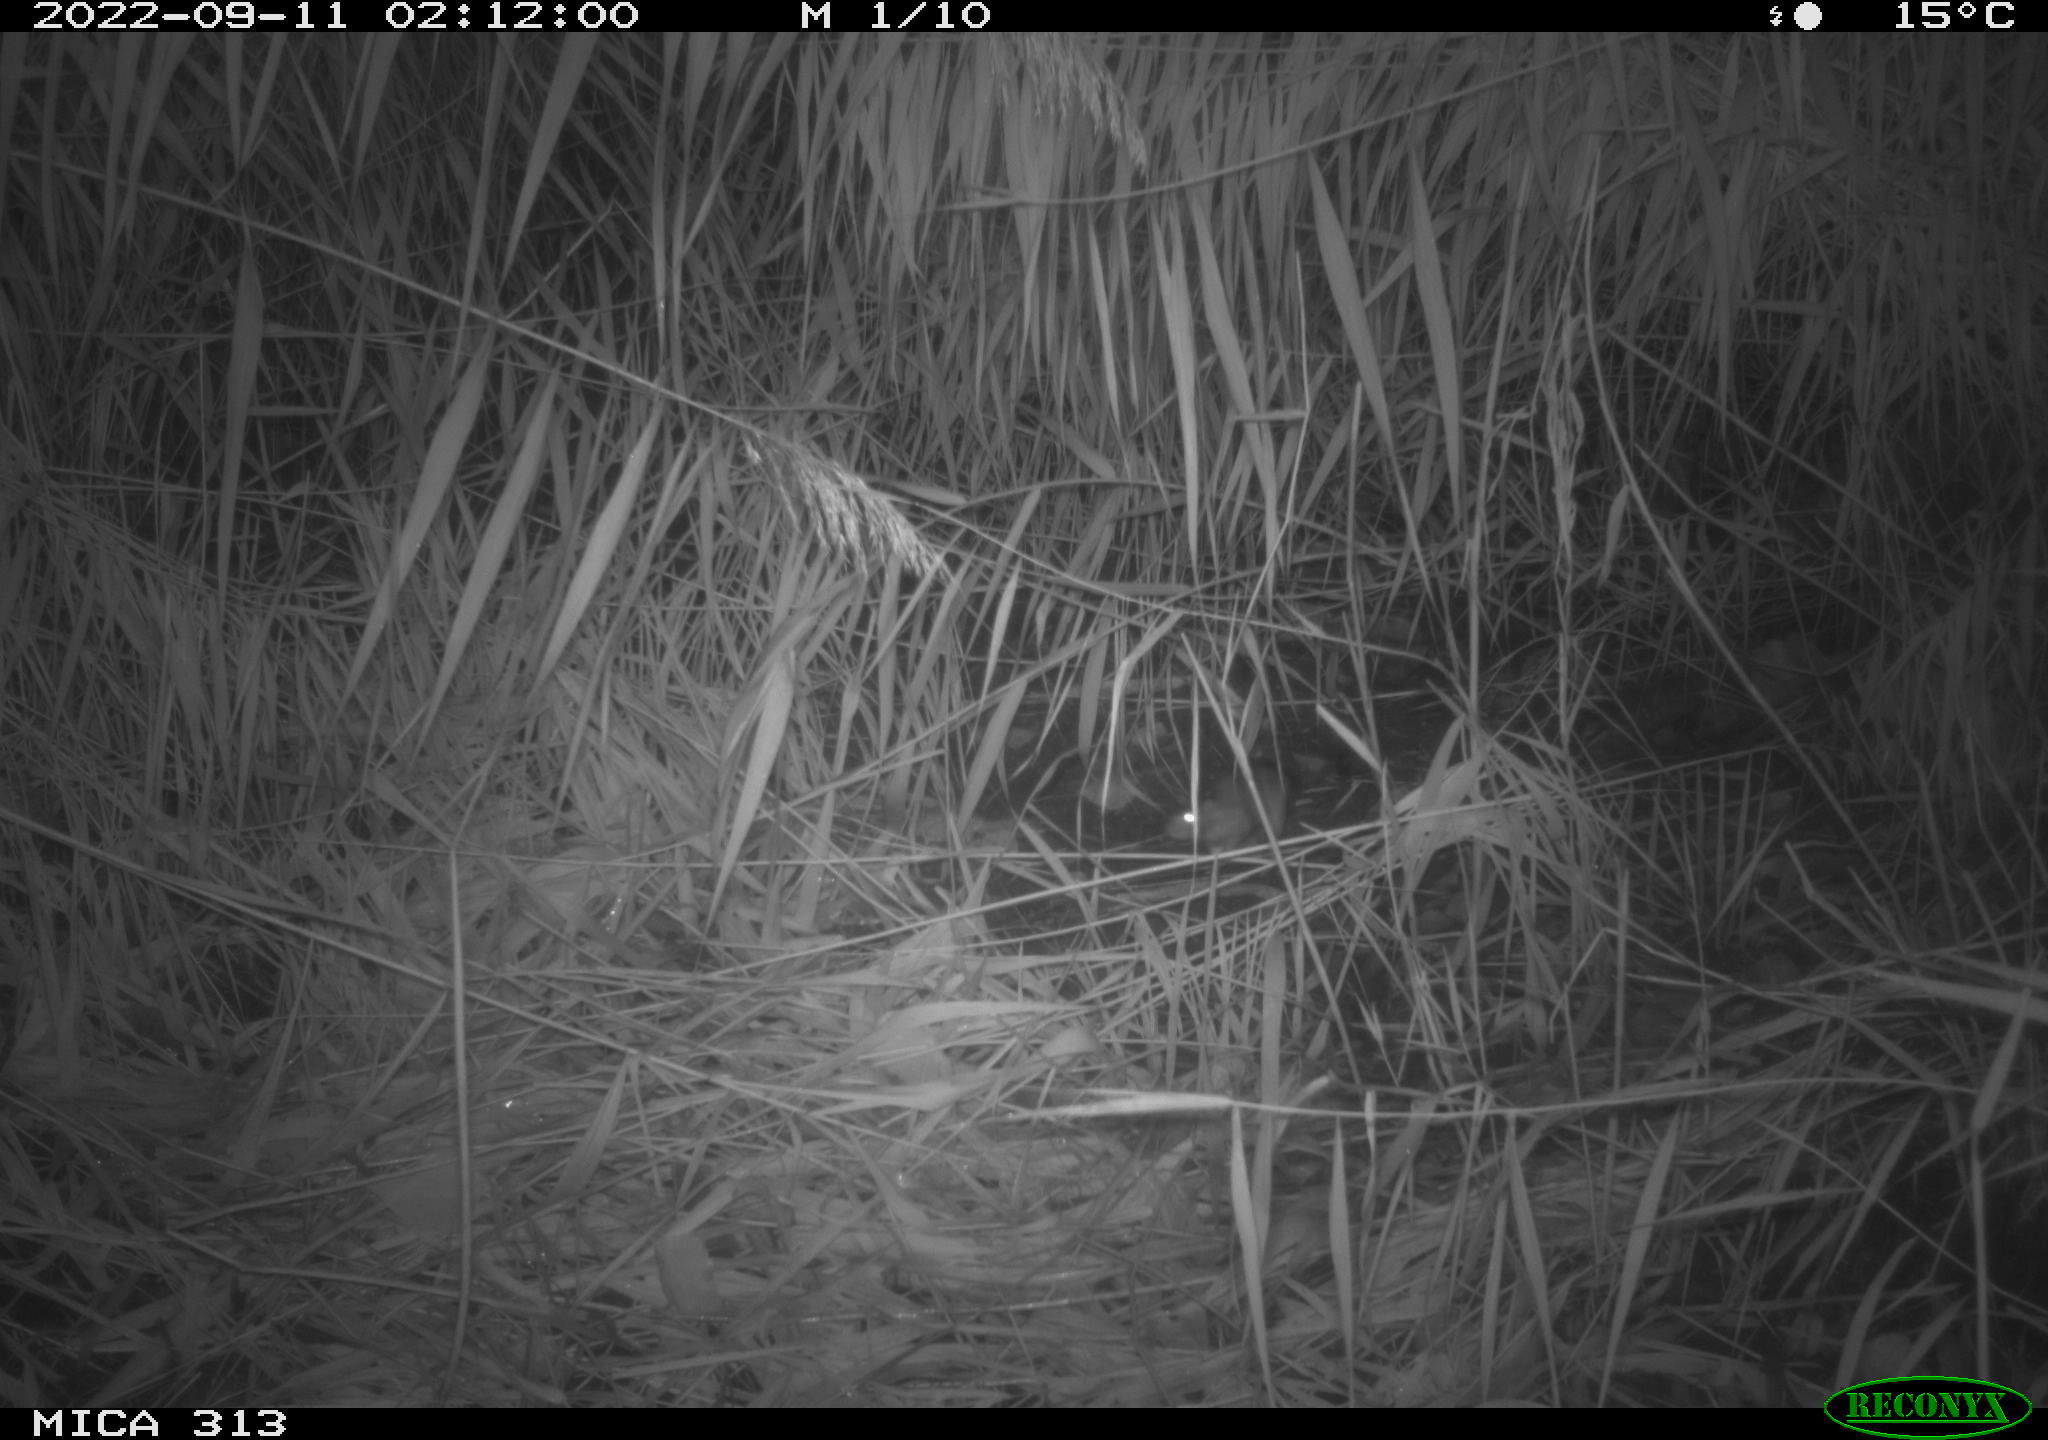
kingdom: Animalia
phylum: Chordata
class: Mammalia
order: Rodentia
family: Muridae
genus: Rattus
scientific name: Rattus norvegicus
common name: Brown rat
